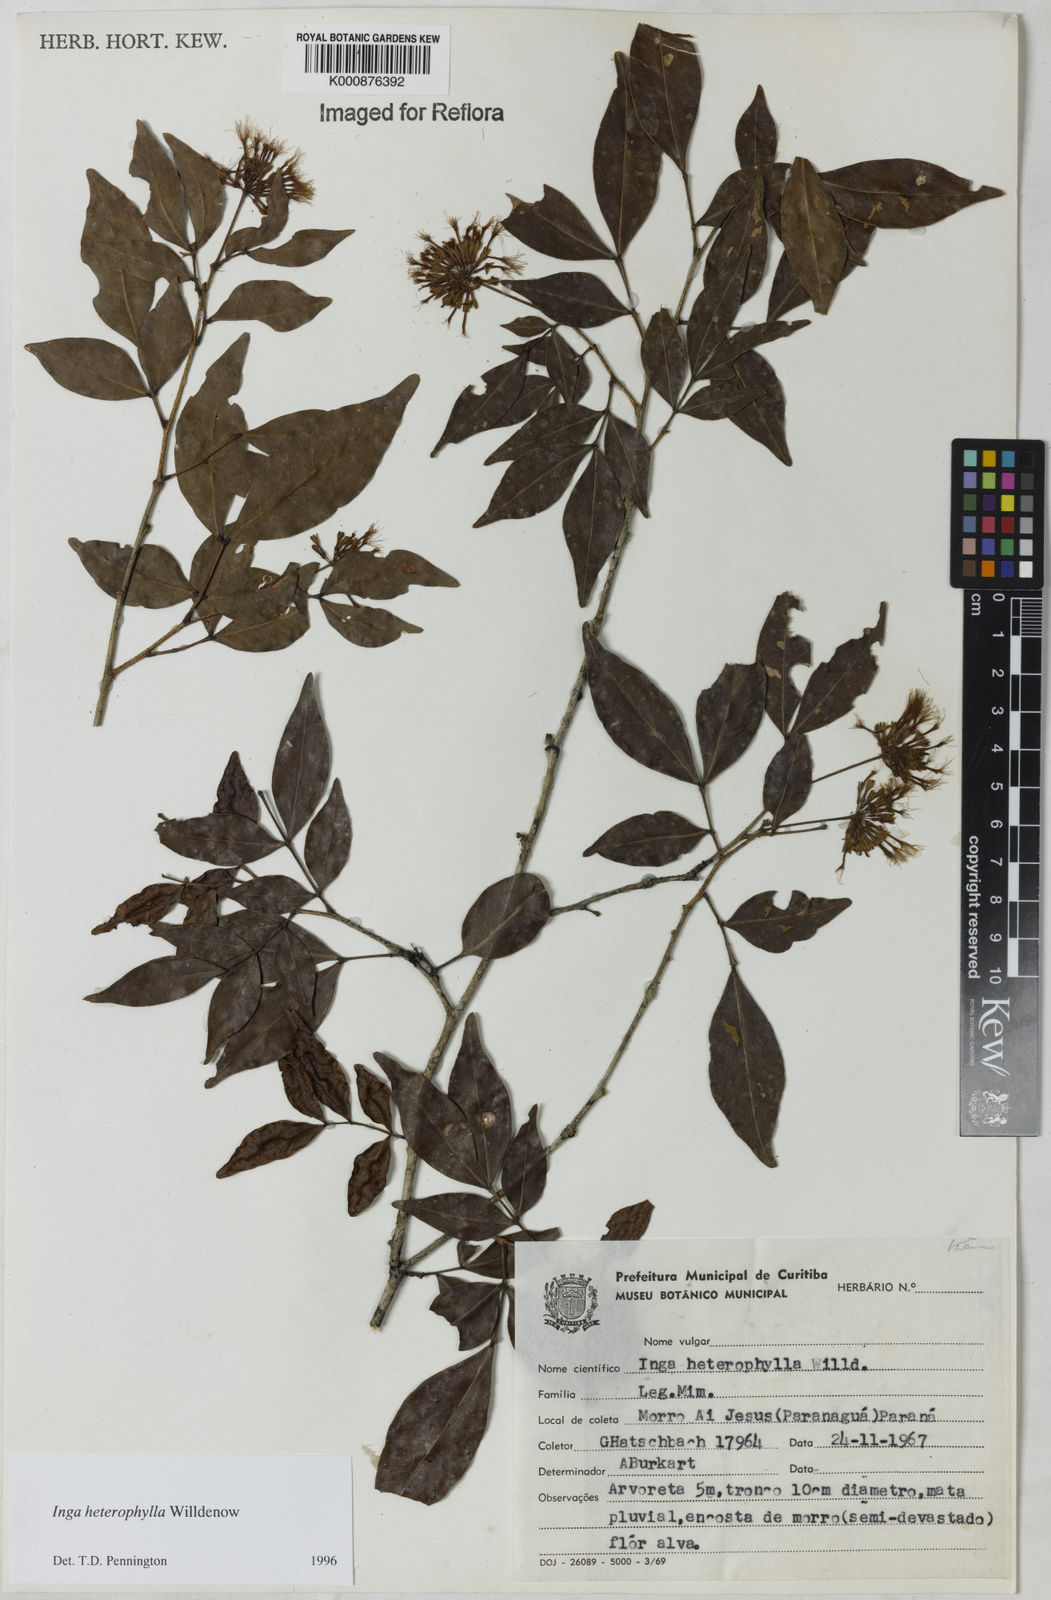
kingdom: Plantae
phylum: Tracheophyta
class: Magnoliopsida
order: Fabales
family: Fabaceae
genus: Inga
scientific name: Inga heterophylla
